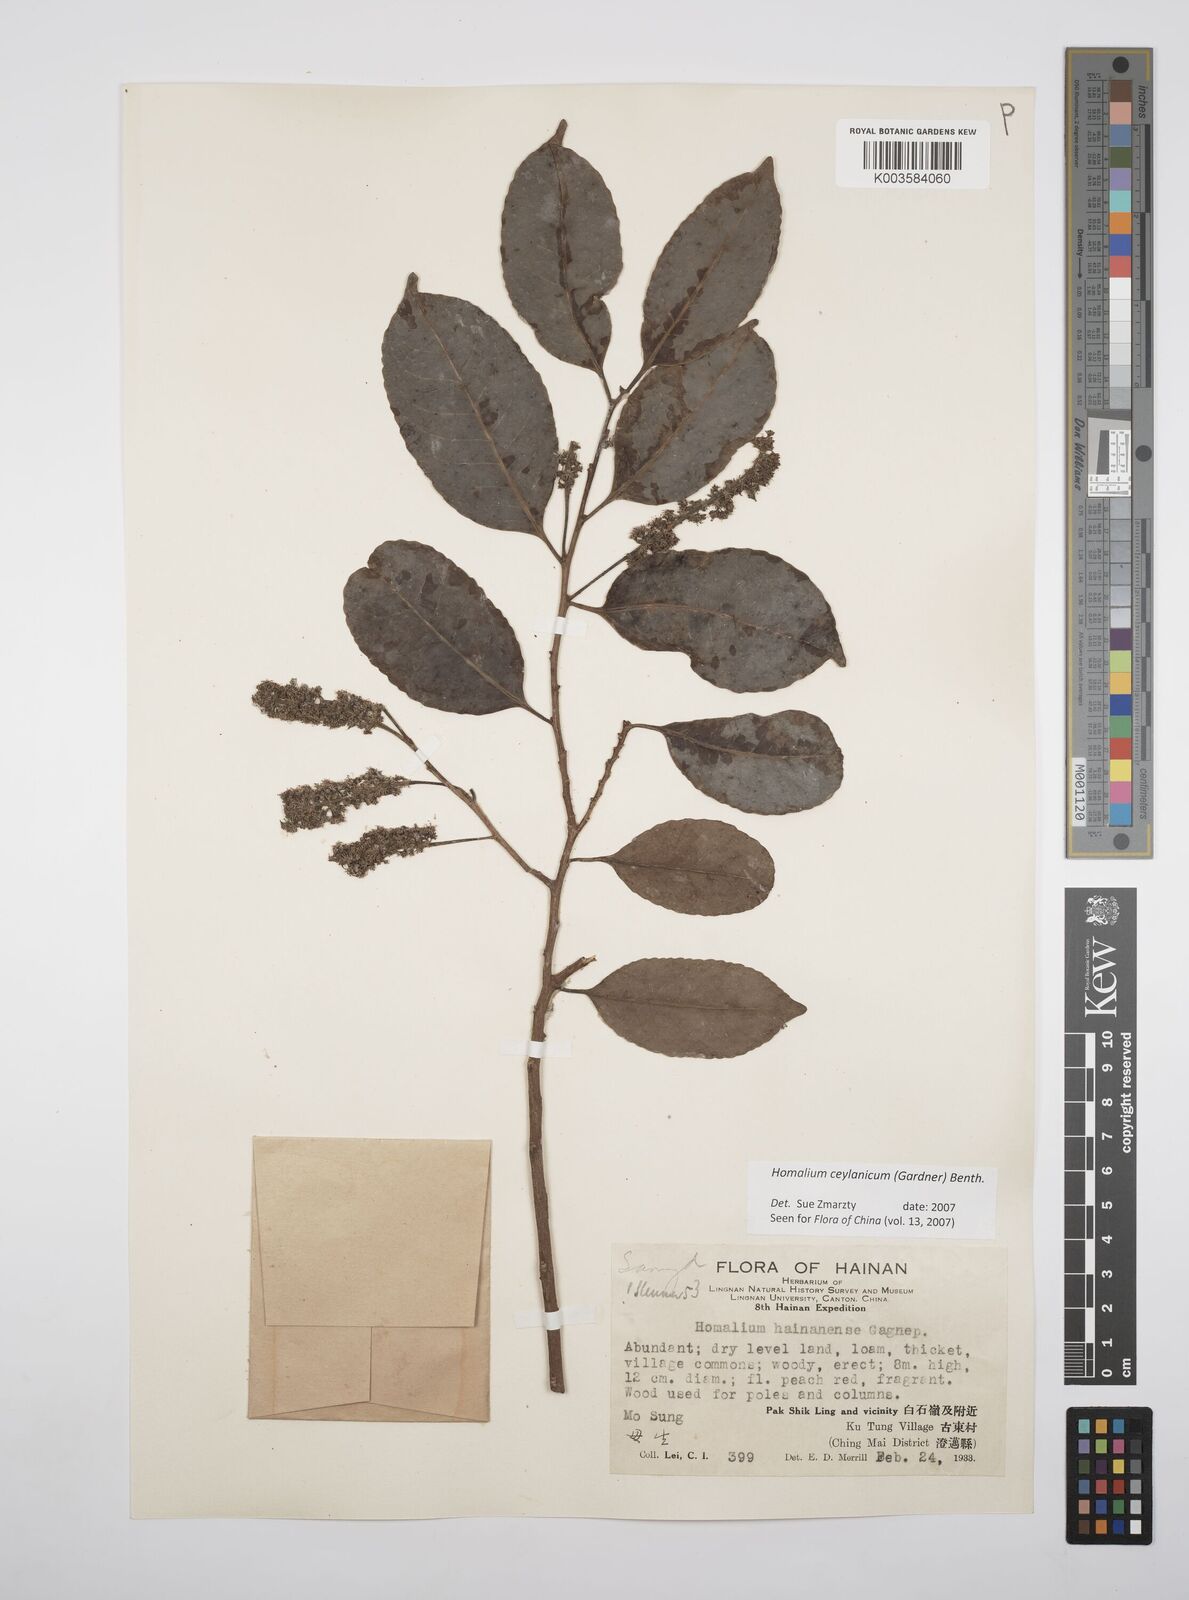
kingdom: Plantae
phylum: Tracheophyta
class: Magnoliopsida
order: Malpighiales
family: Salicaceae
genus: Homalium
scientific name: Homalium ceylanicum
